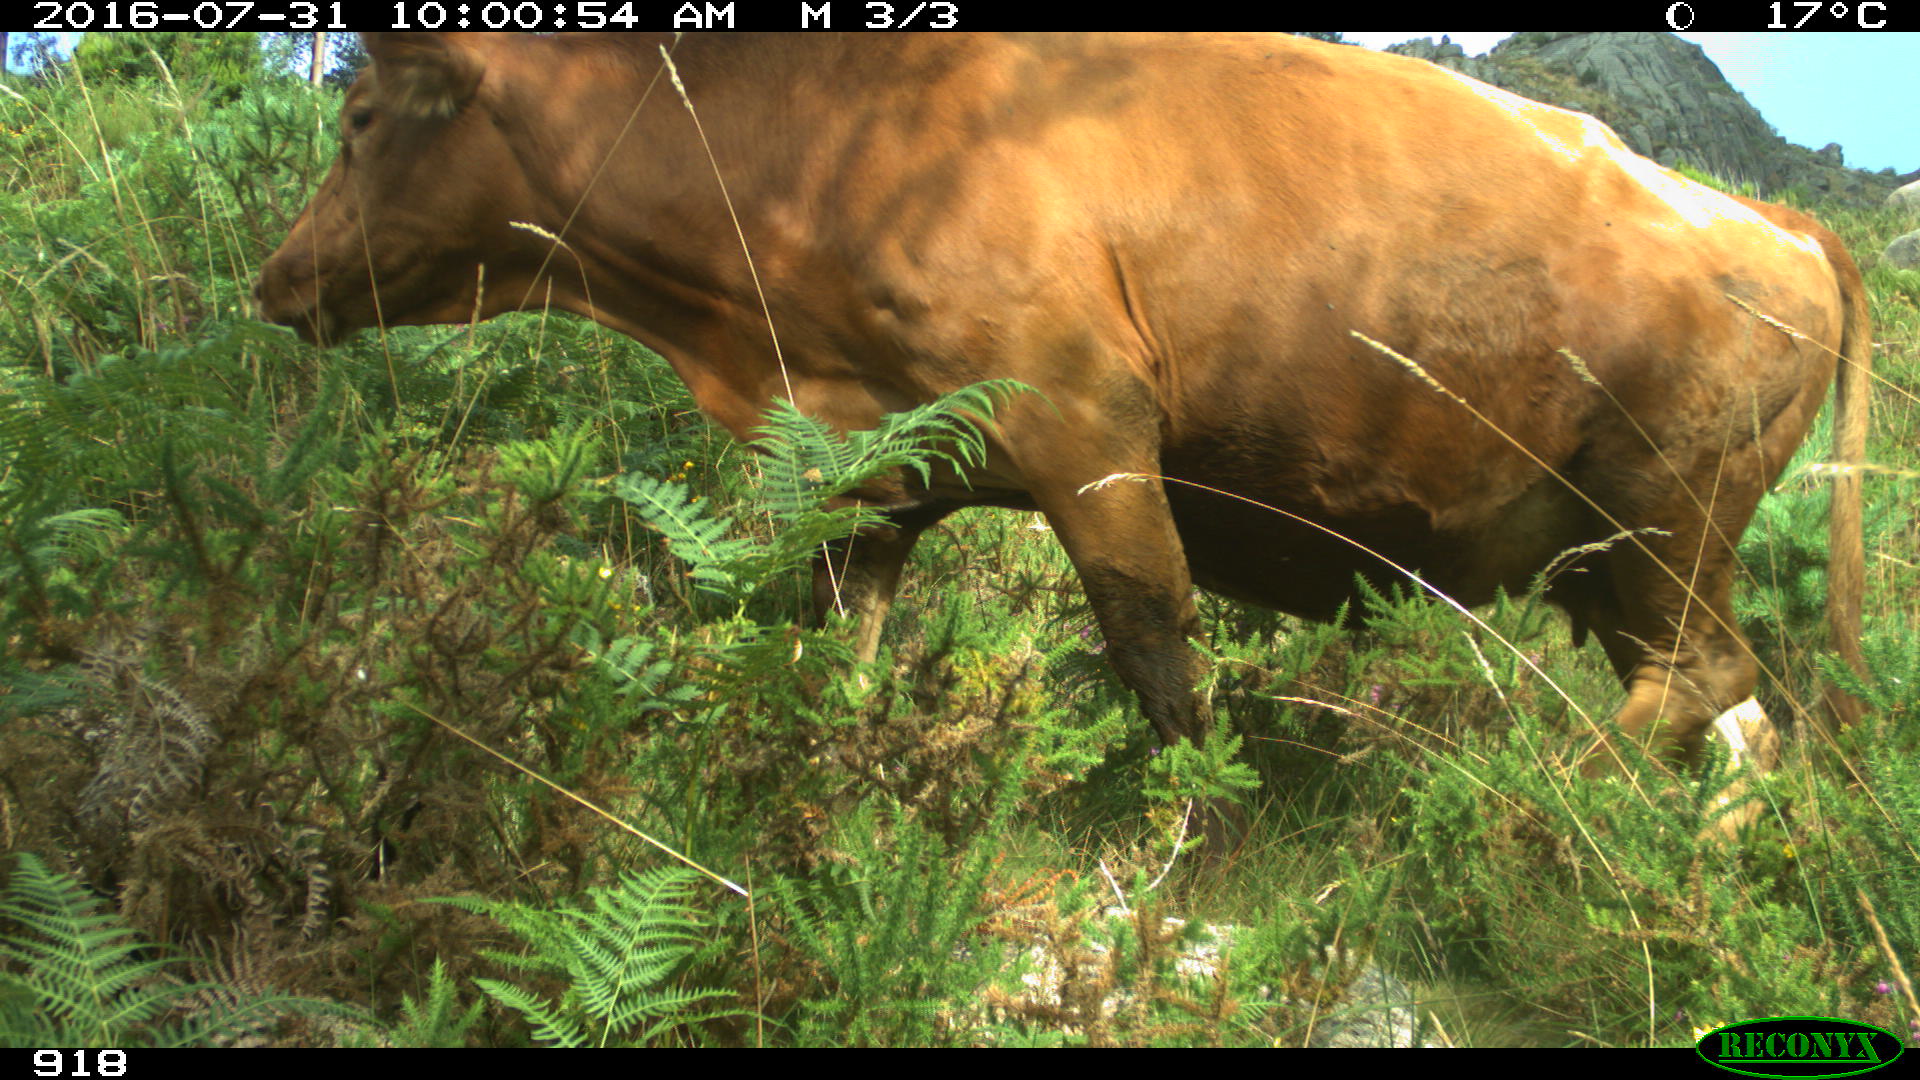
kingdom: Animalia
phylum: Chordata
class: Mammalia
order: Artiodactyla
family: Bovidae
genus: Bos
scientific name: Bos taurus
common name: Domesticated cattle
